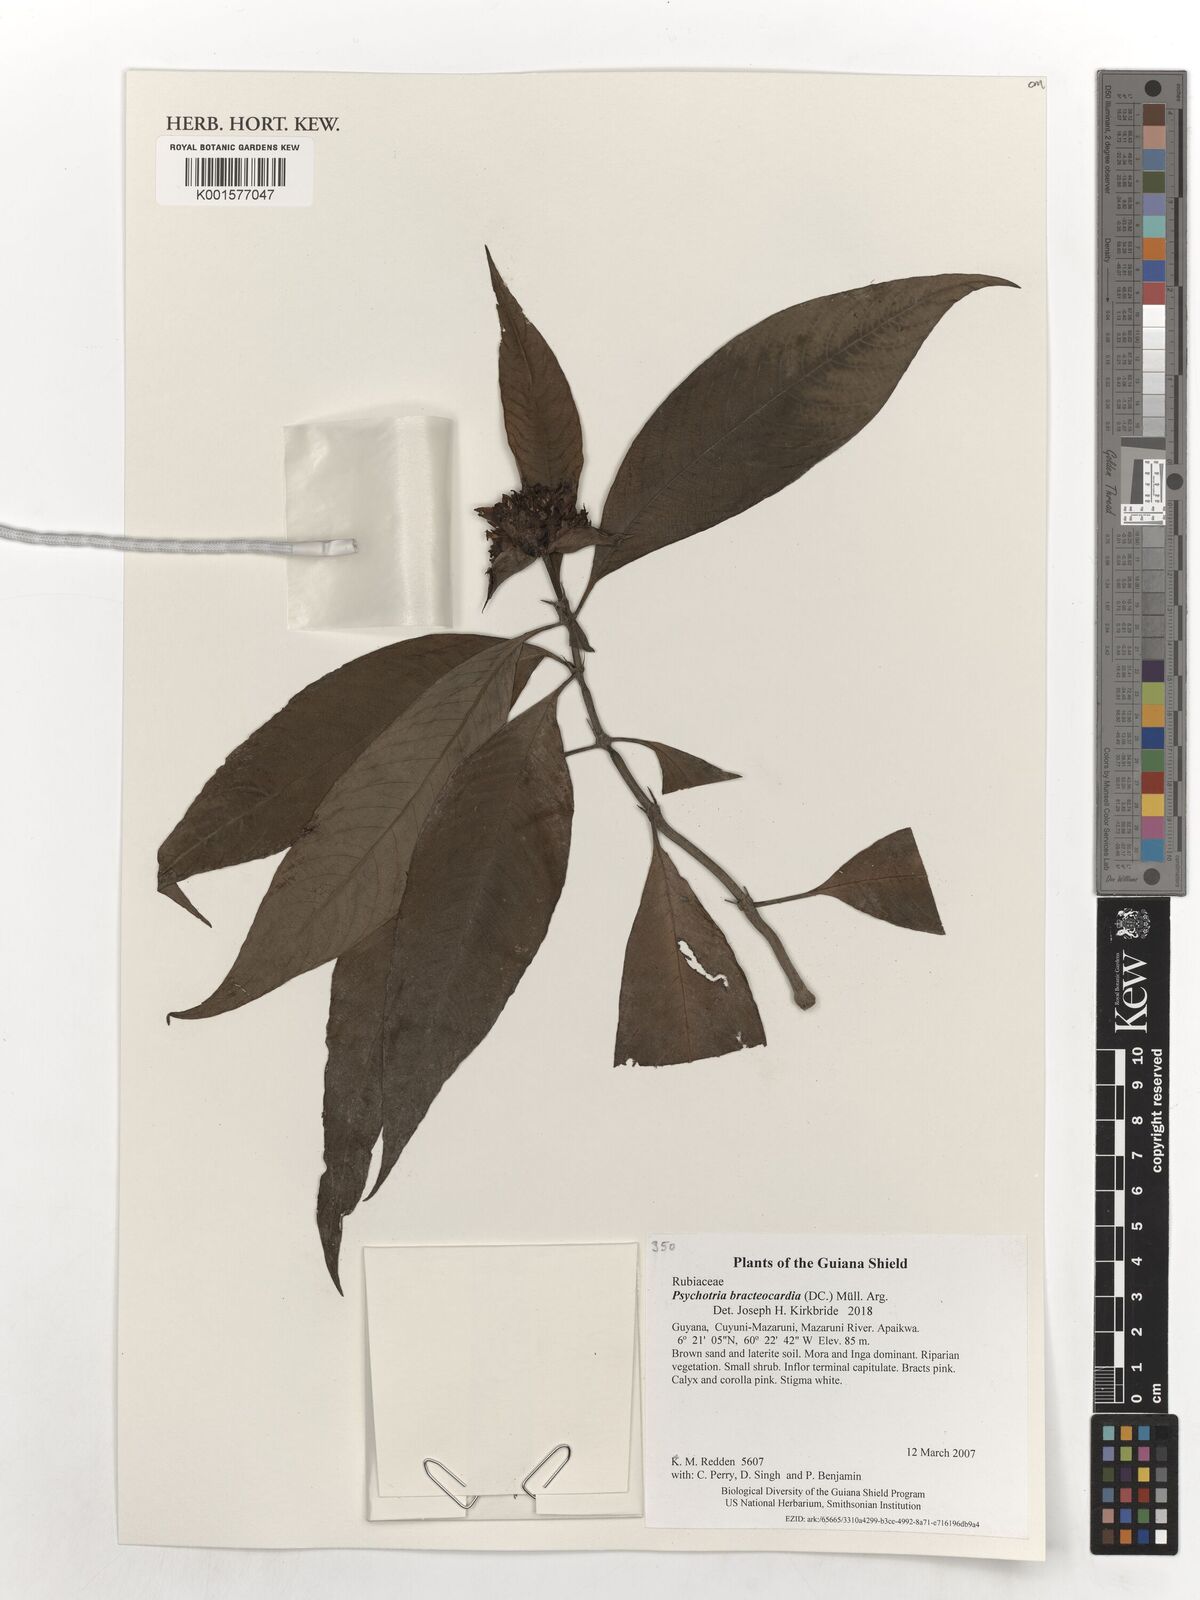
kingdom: Plantae
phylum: Tracheophyta
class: Magnoliopsida
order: Gentianales
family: Rubiaceae
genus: Palicourea
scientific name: Palicourea bracteocardia
